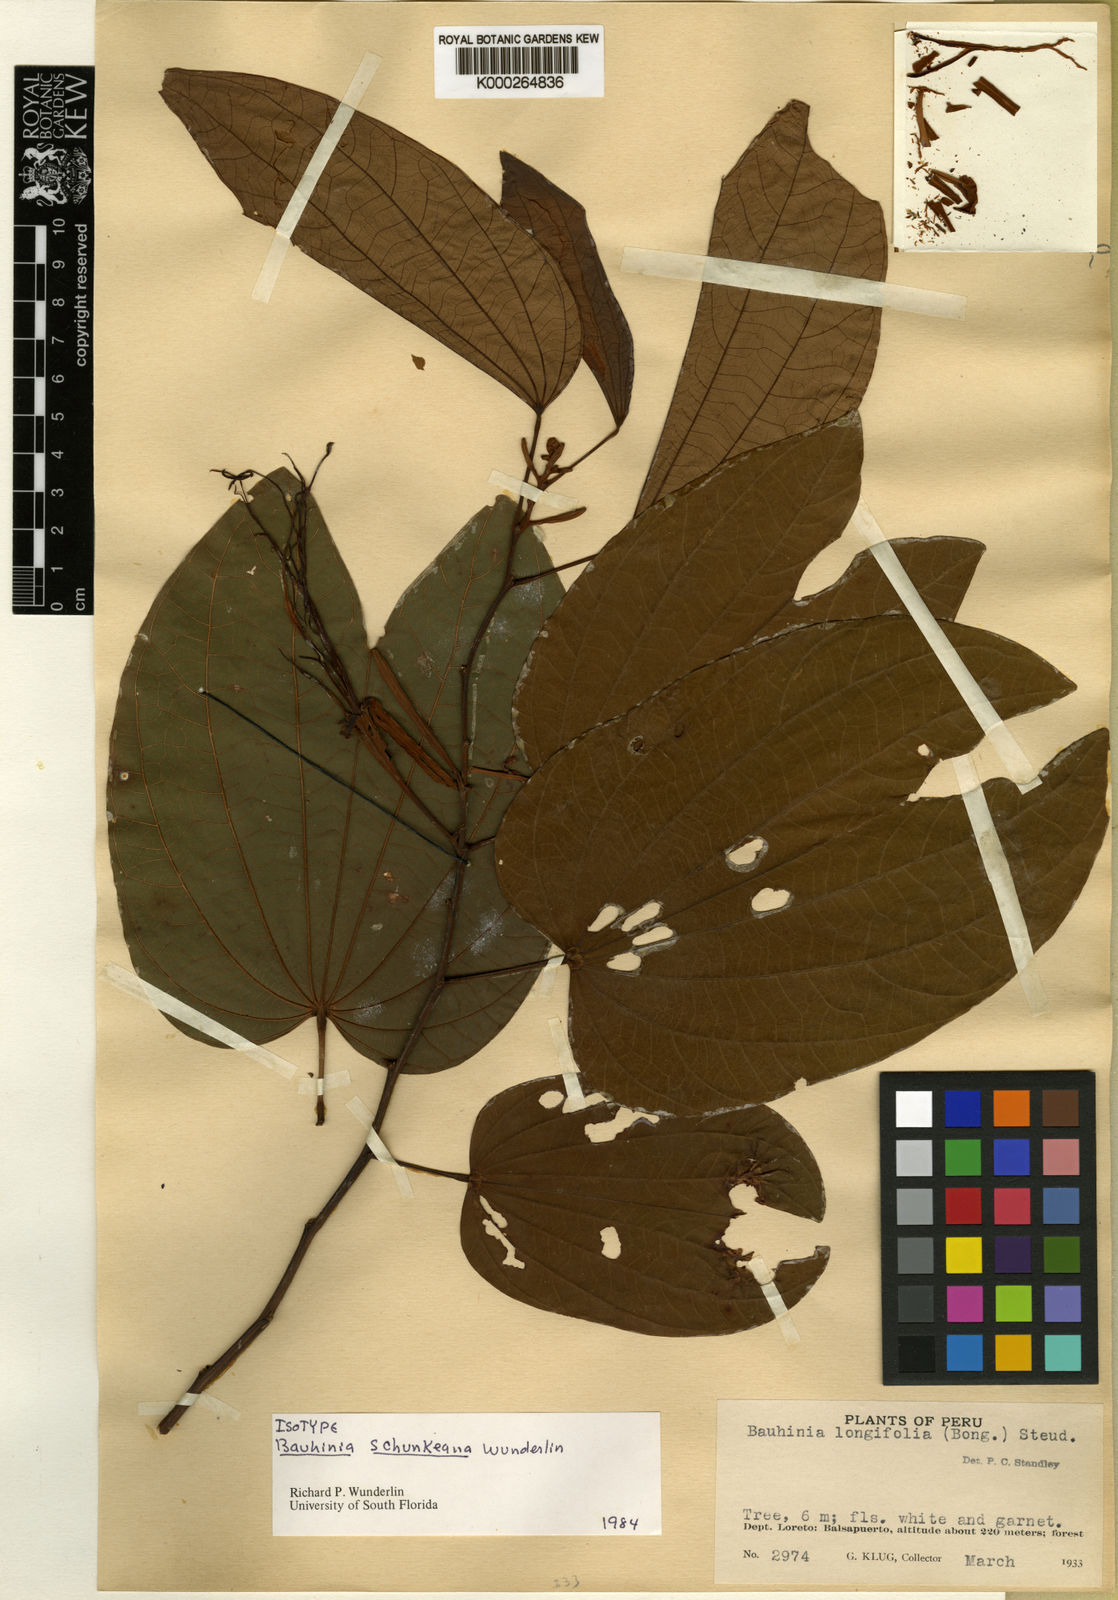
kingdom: Plantae
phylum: Tracheophyta
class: Magnoliopsida
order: Fabales
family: Fabaceae
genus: Bauhinia
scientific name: Bauhinia
